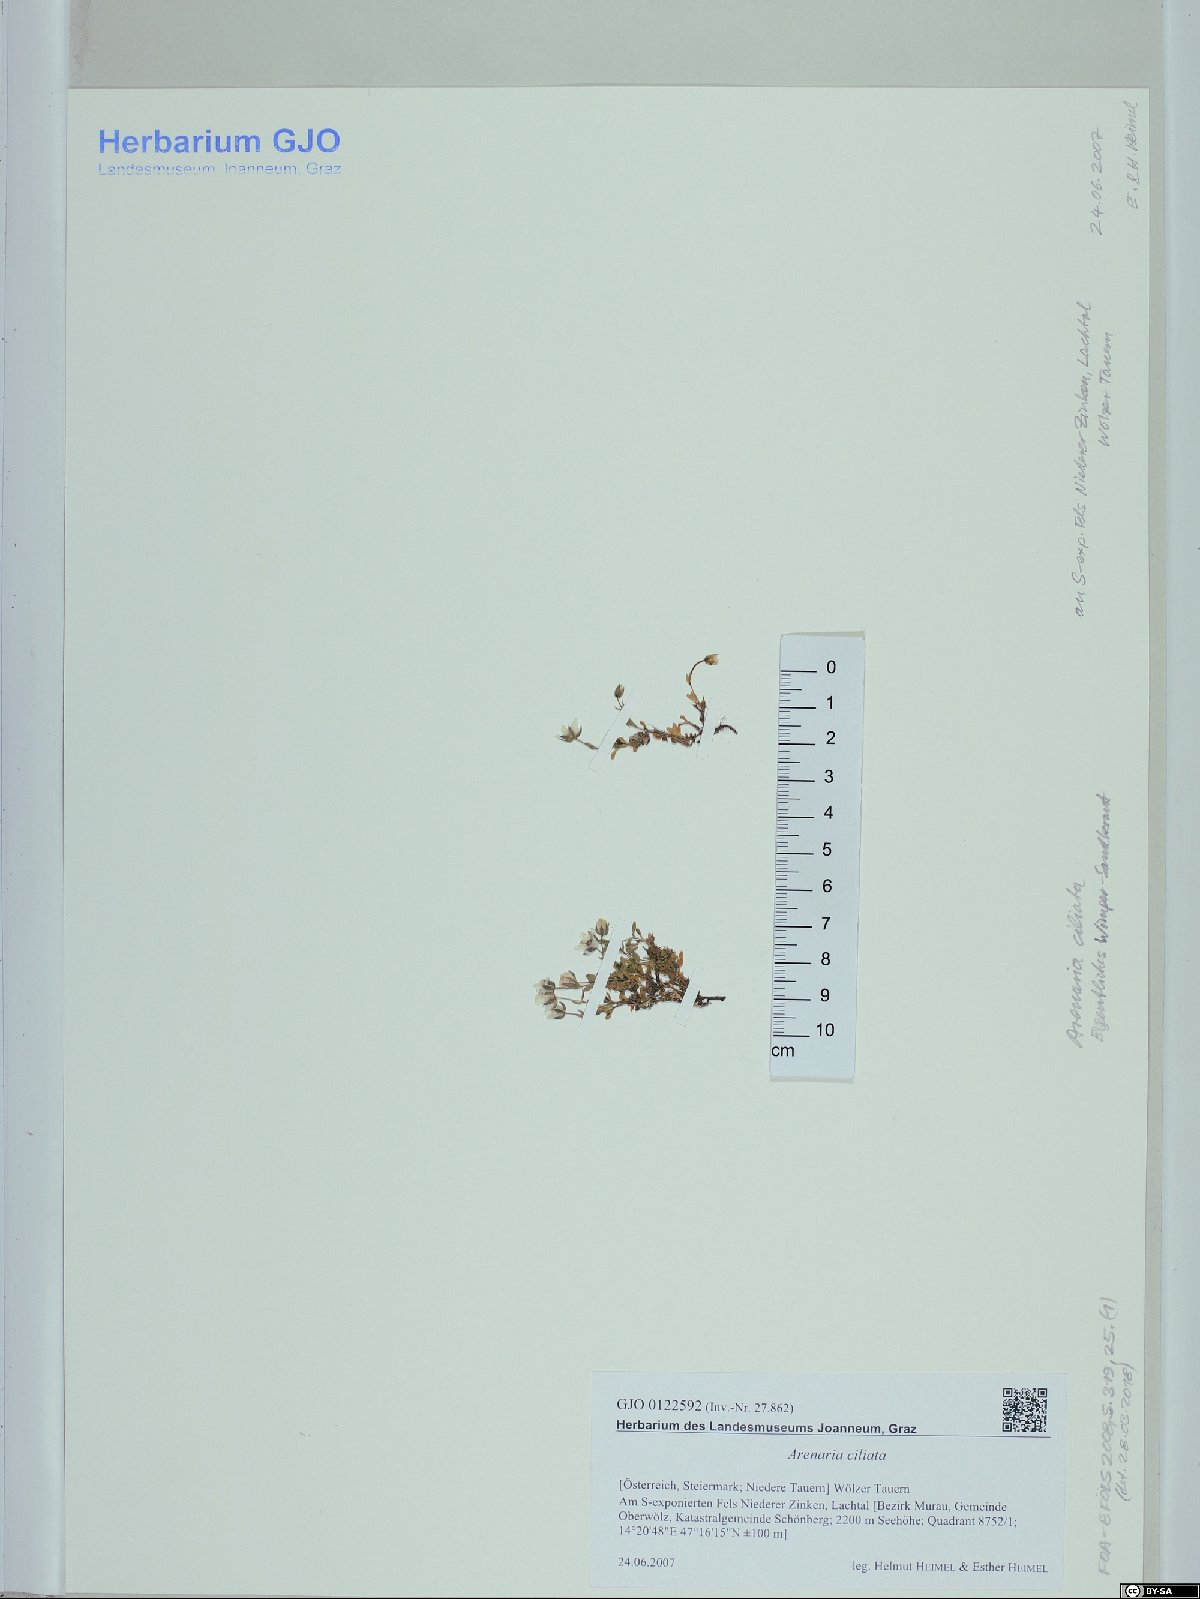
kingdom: Plantae
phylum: Tracheophyta
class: Magnoliopsida
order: Caryophyllales
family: Caryophyllaceae
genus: Arenaria
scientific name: Arenaria ciliata
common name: Fringed sandwort
